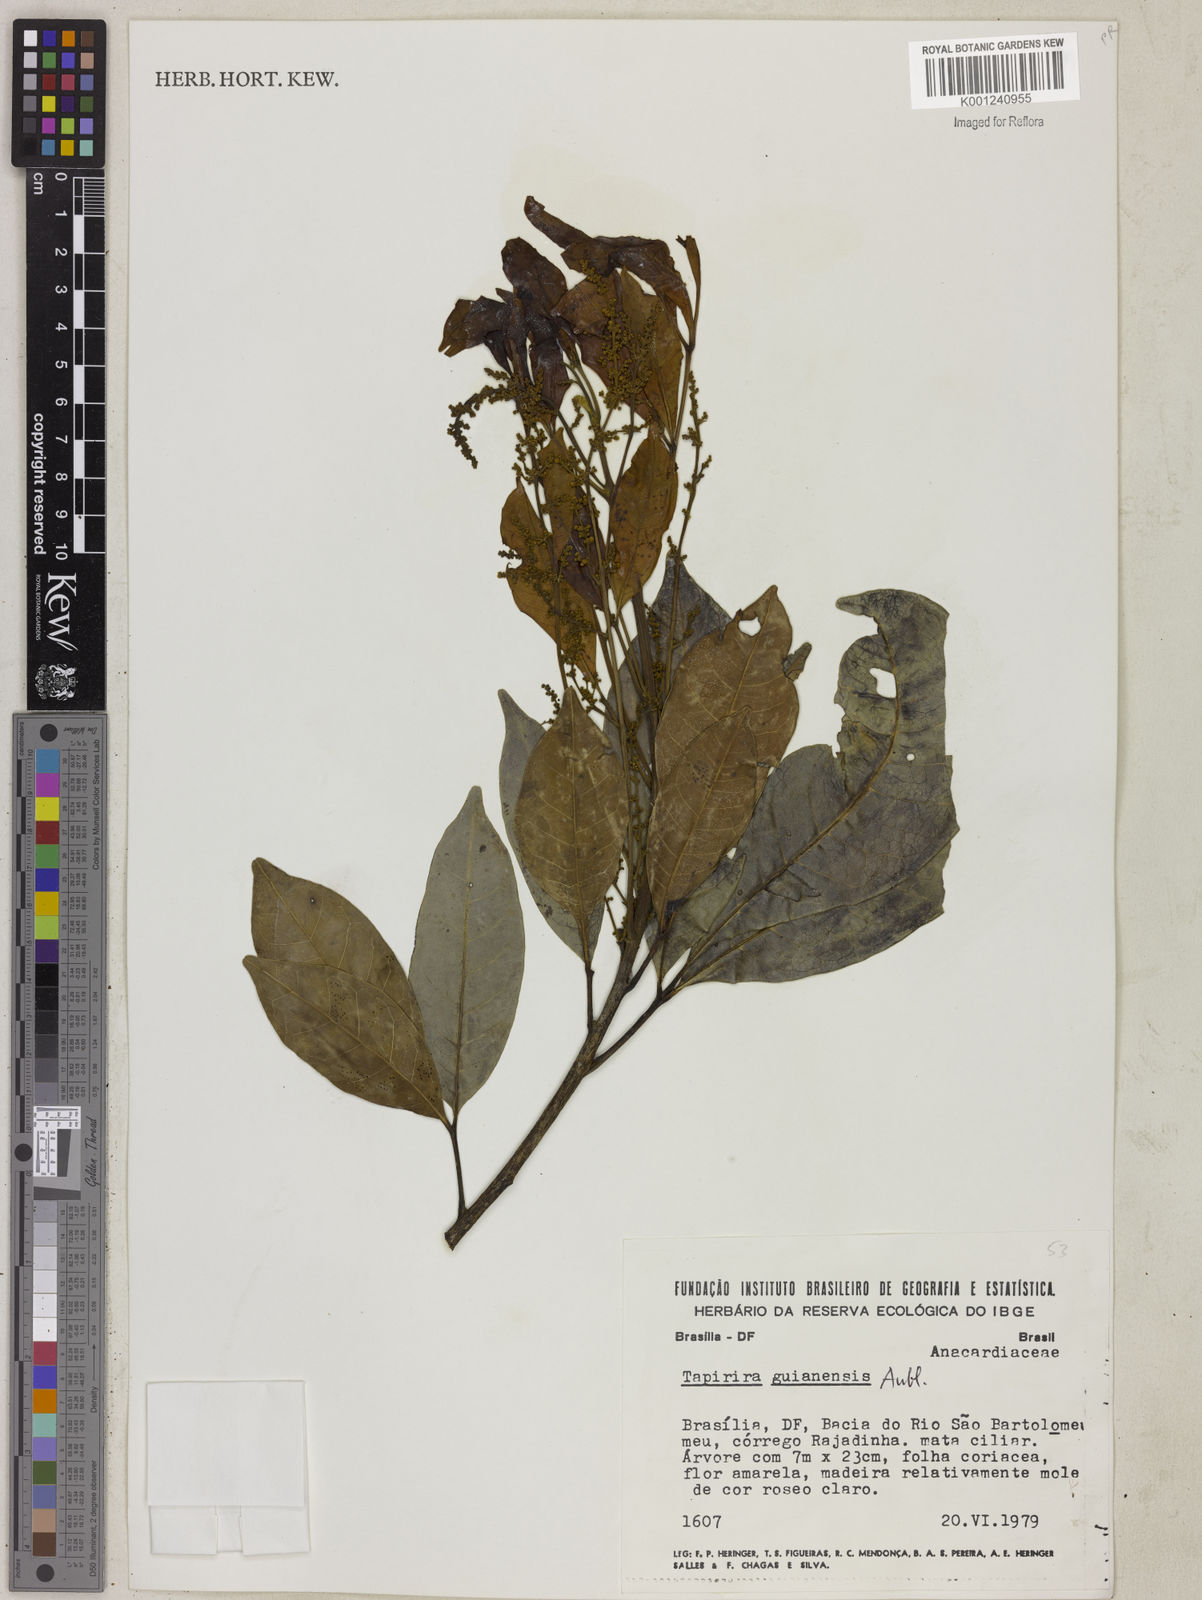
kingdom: Plantae
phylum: Tracheophyta
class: Magnoliopsida
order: Sapindales
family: Anacardiaceae
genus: Tapirira
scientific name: Tapirira guianensis
